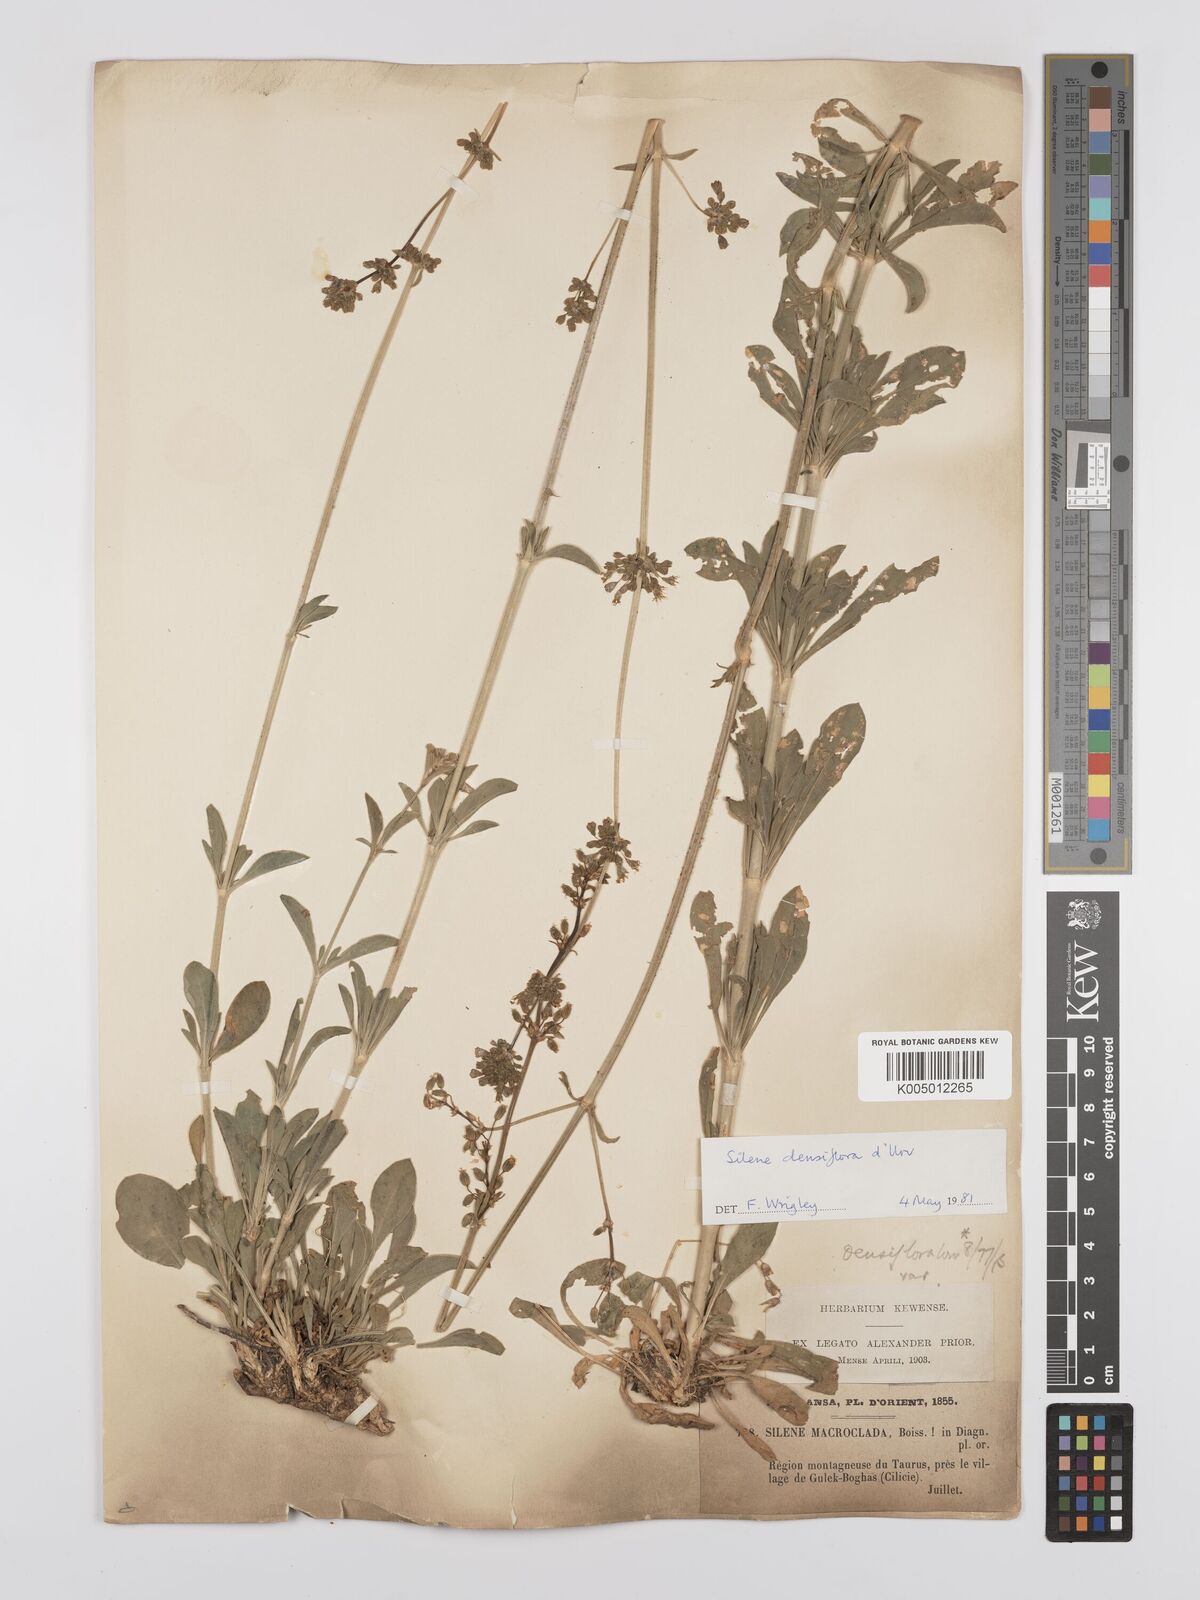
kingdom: Plantae
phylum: Tracheophyta
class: Magnoliopsida
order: Caryophyllales
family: Caryophyllaceae
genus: Silene
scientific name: Silene densiflora
